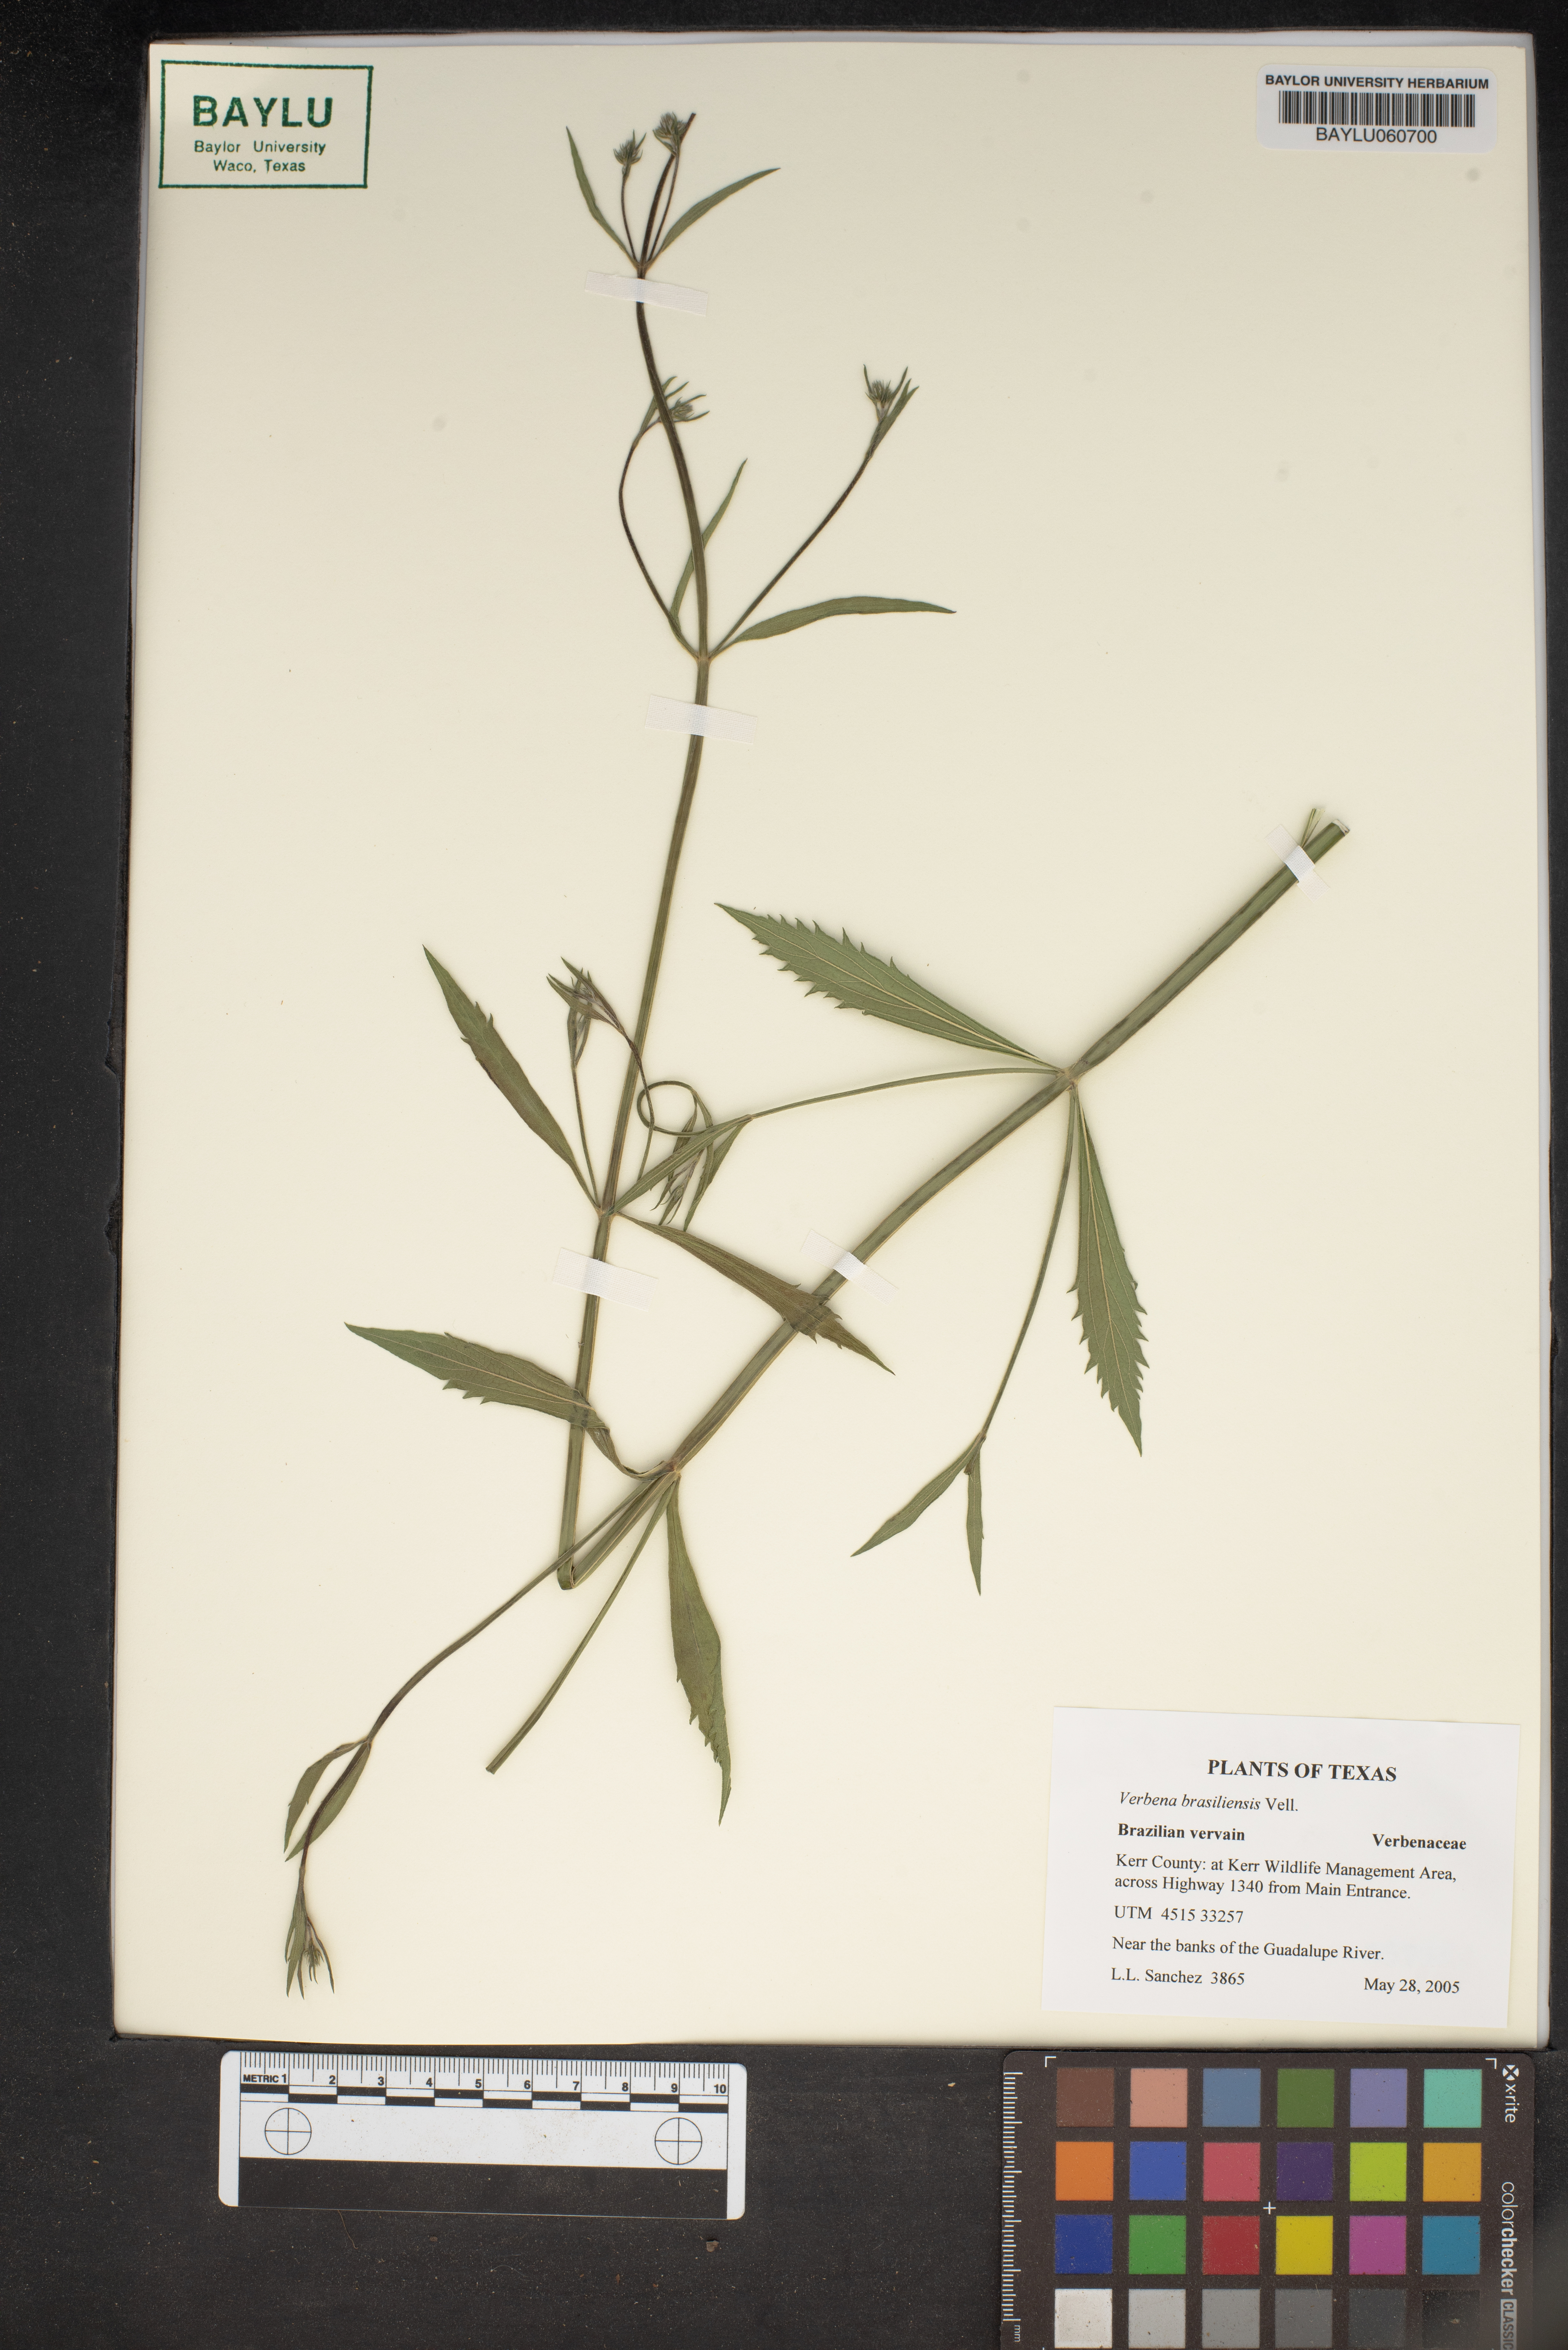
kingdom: Plantae
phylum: Tracheophyta
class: Magnoliopsida
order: Lamiales
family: Verbenaceae
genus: Verbena
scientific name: Verbena brasiliensis
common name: Brazilian vervain
